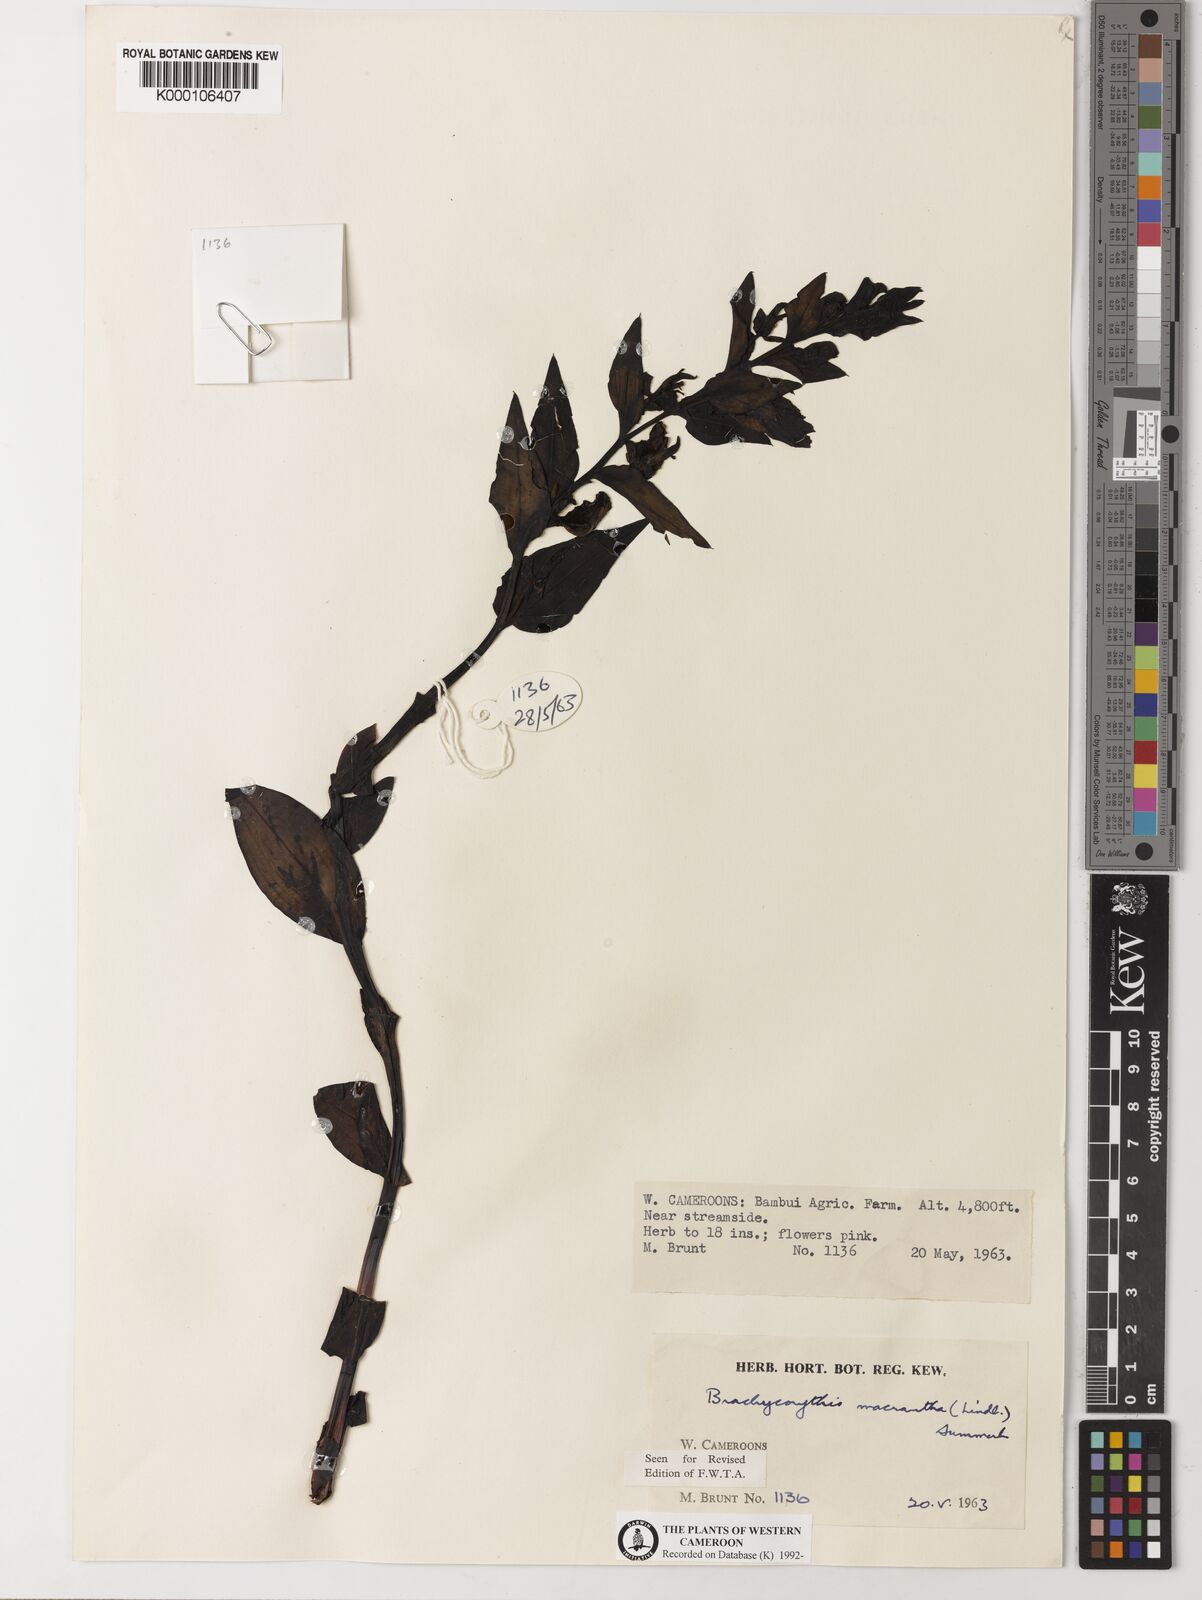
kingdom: Plantae
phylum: Tracheophyta
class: Liliopsida
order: Asparagales
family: Orchidaceae
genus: Brachycorythis
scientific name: Brachycorythis macrantha
